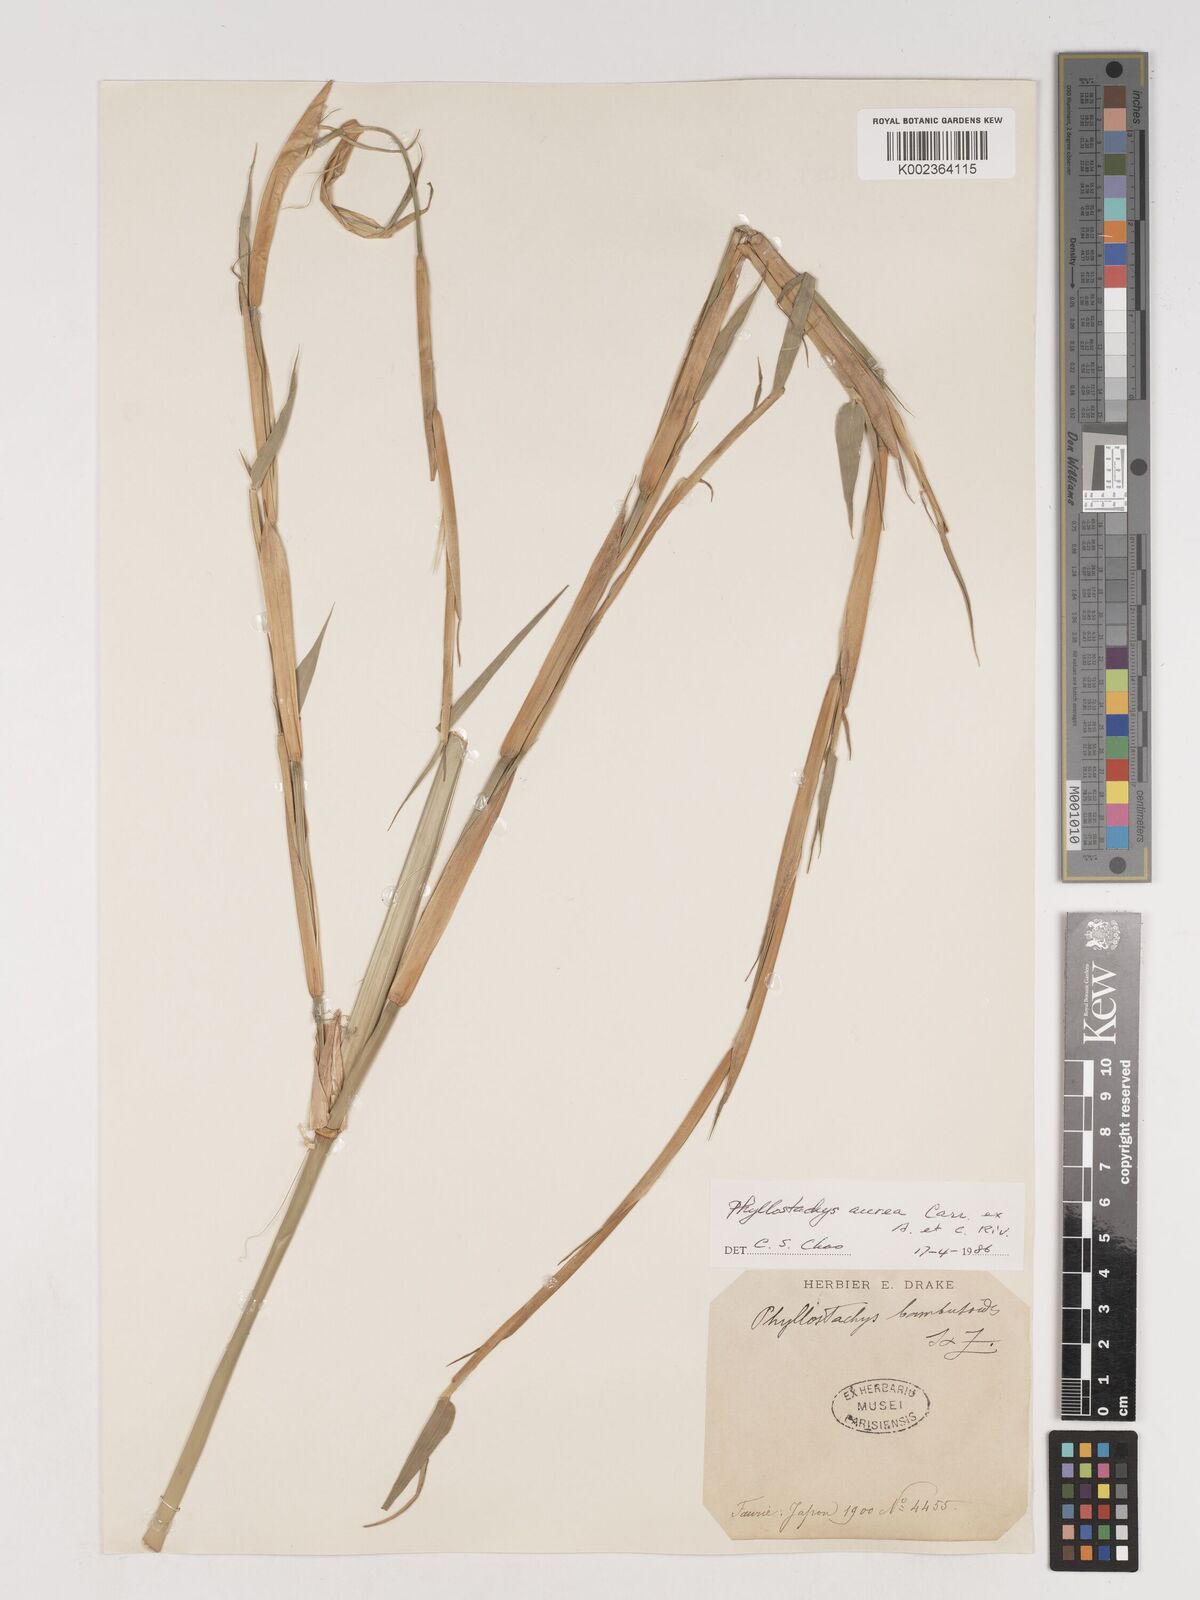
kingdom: Plantae
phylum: Tracheophyta
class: Liliopsida
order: Poales
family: Poaceae
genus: Phyllostachys
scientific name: Phyllostachys aurea
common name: Golden bamboo
